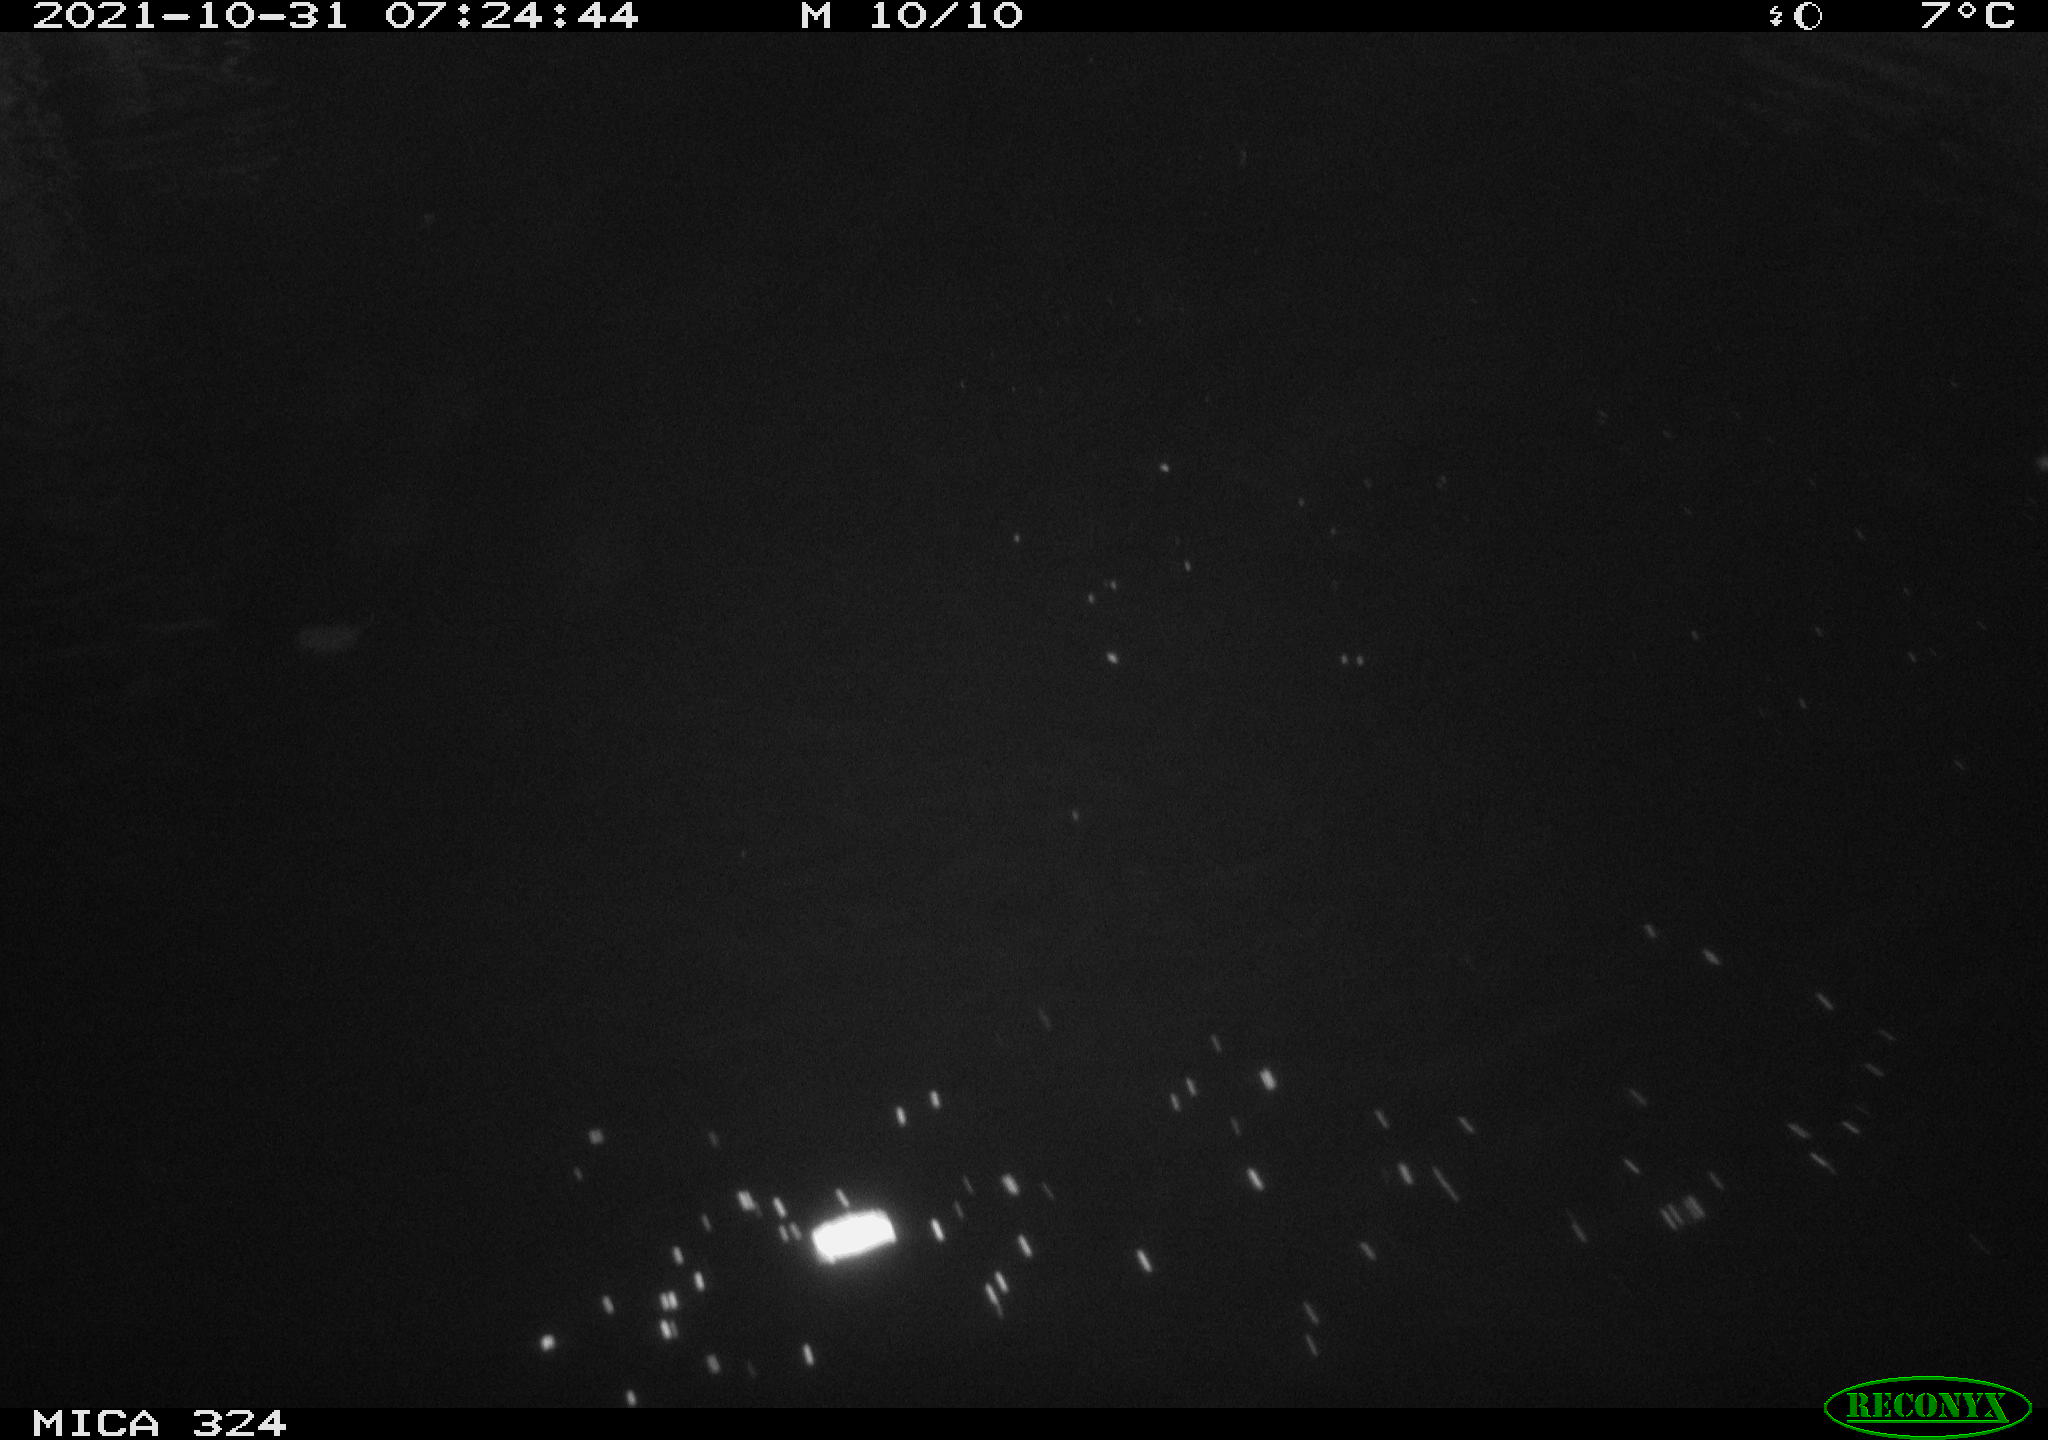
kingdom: Animalia
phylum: Chordata
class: Mammalia
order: Rodentia
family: Cricetidae
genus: Ondatra
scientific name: Ondatra zibethicus
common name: Muskrat
